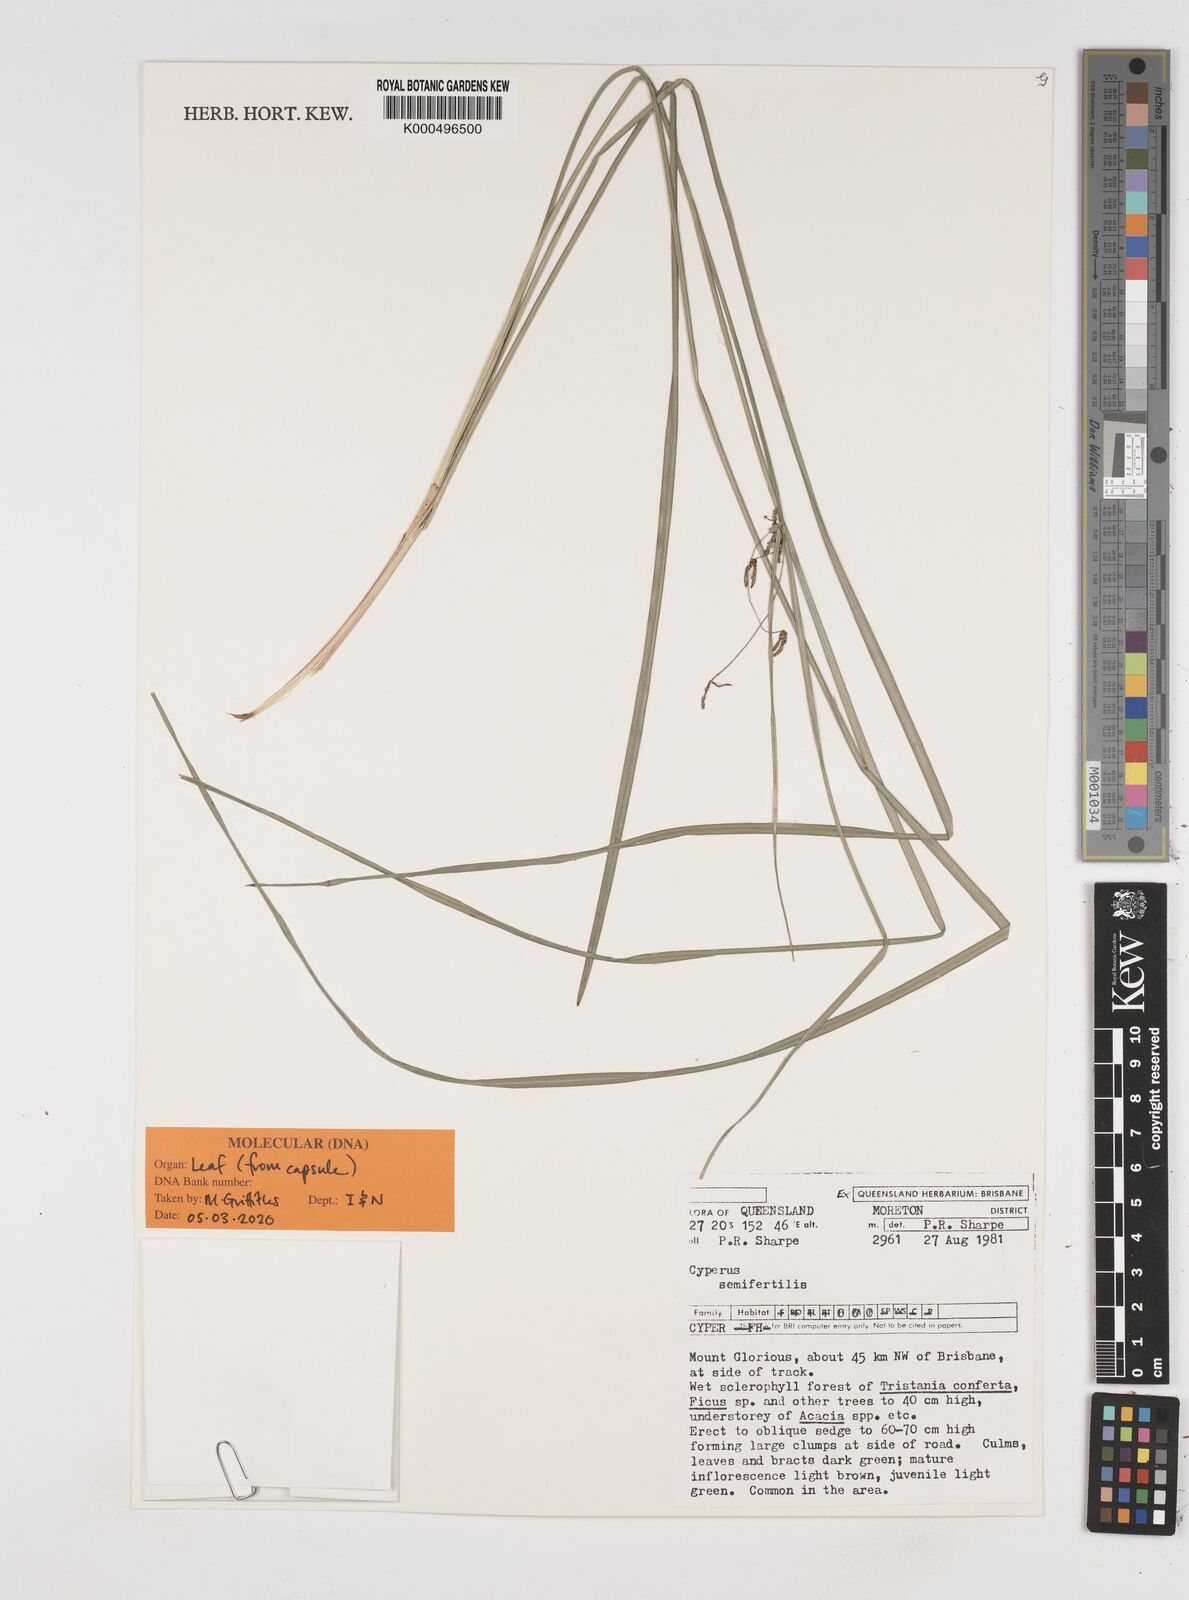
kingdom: Plantae
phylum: Tracheophyta
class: Liliopsida
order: Poales
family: Cyperaceae
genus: Cyperus
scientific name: Cyperus semifertilis
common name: Missionary nutgrass
